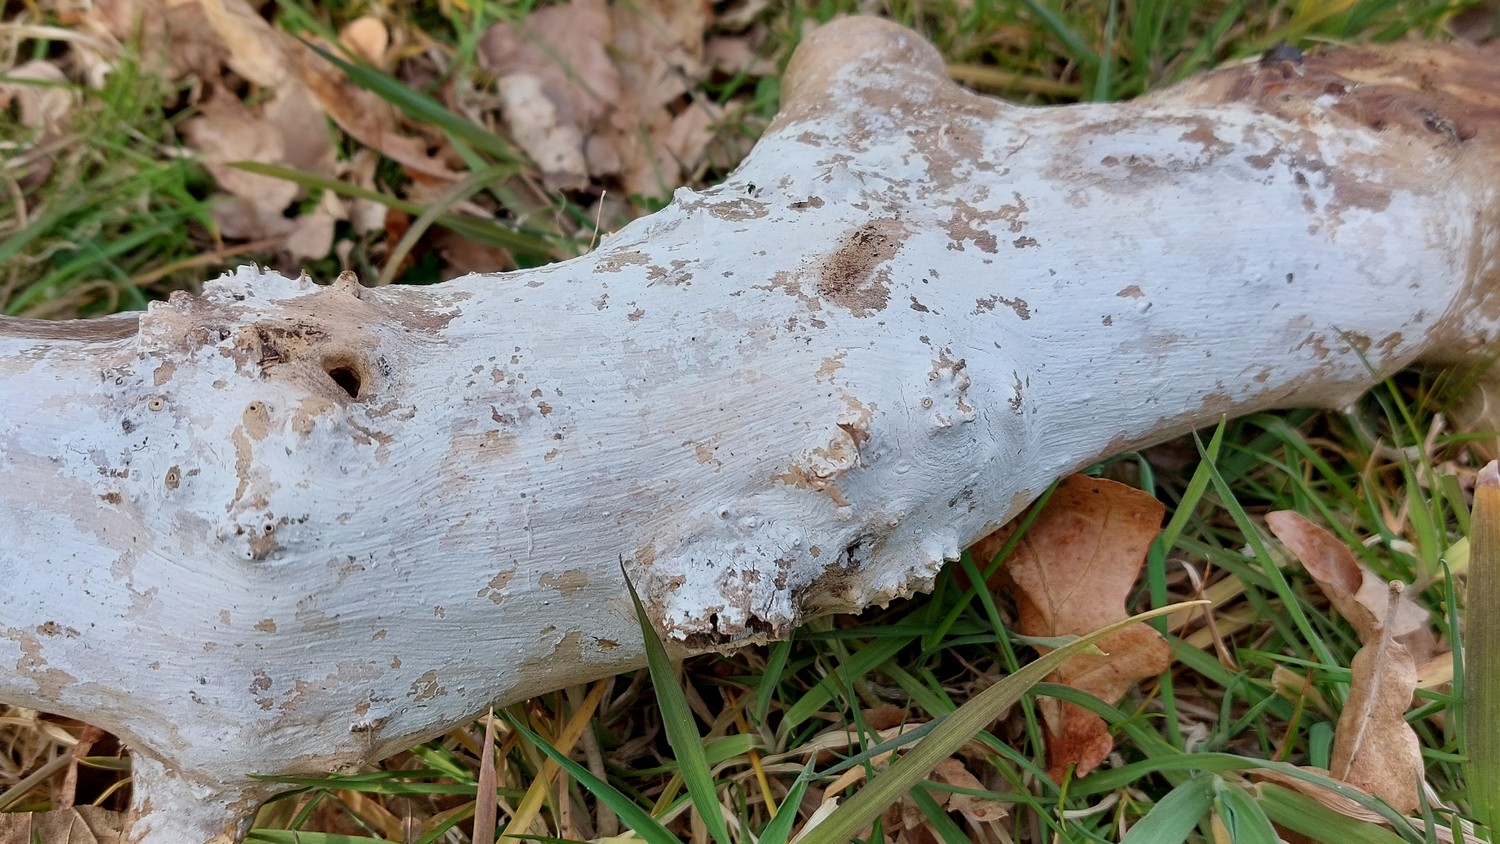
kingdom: Fungi
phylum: Basidiomycota
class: Agaricomycetes
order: Corticiales
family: Corticiaceae
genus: Lyomyces
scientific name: Lyomyces sambuci
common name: almindelig hyldehinde
